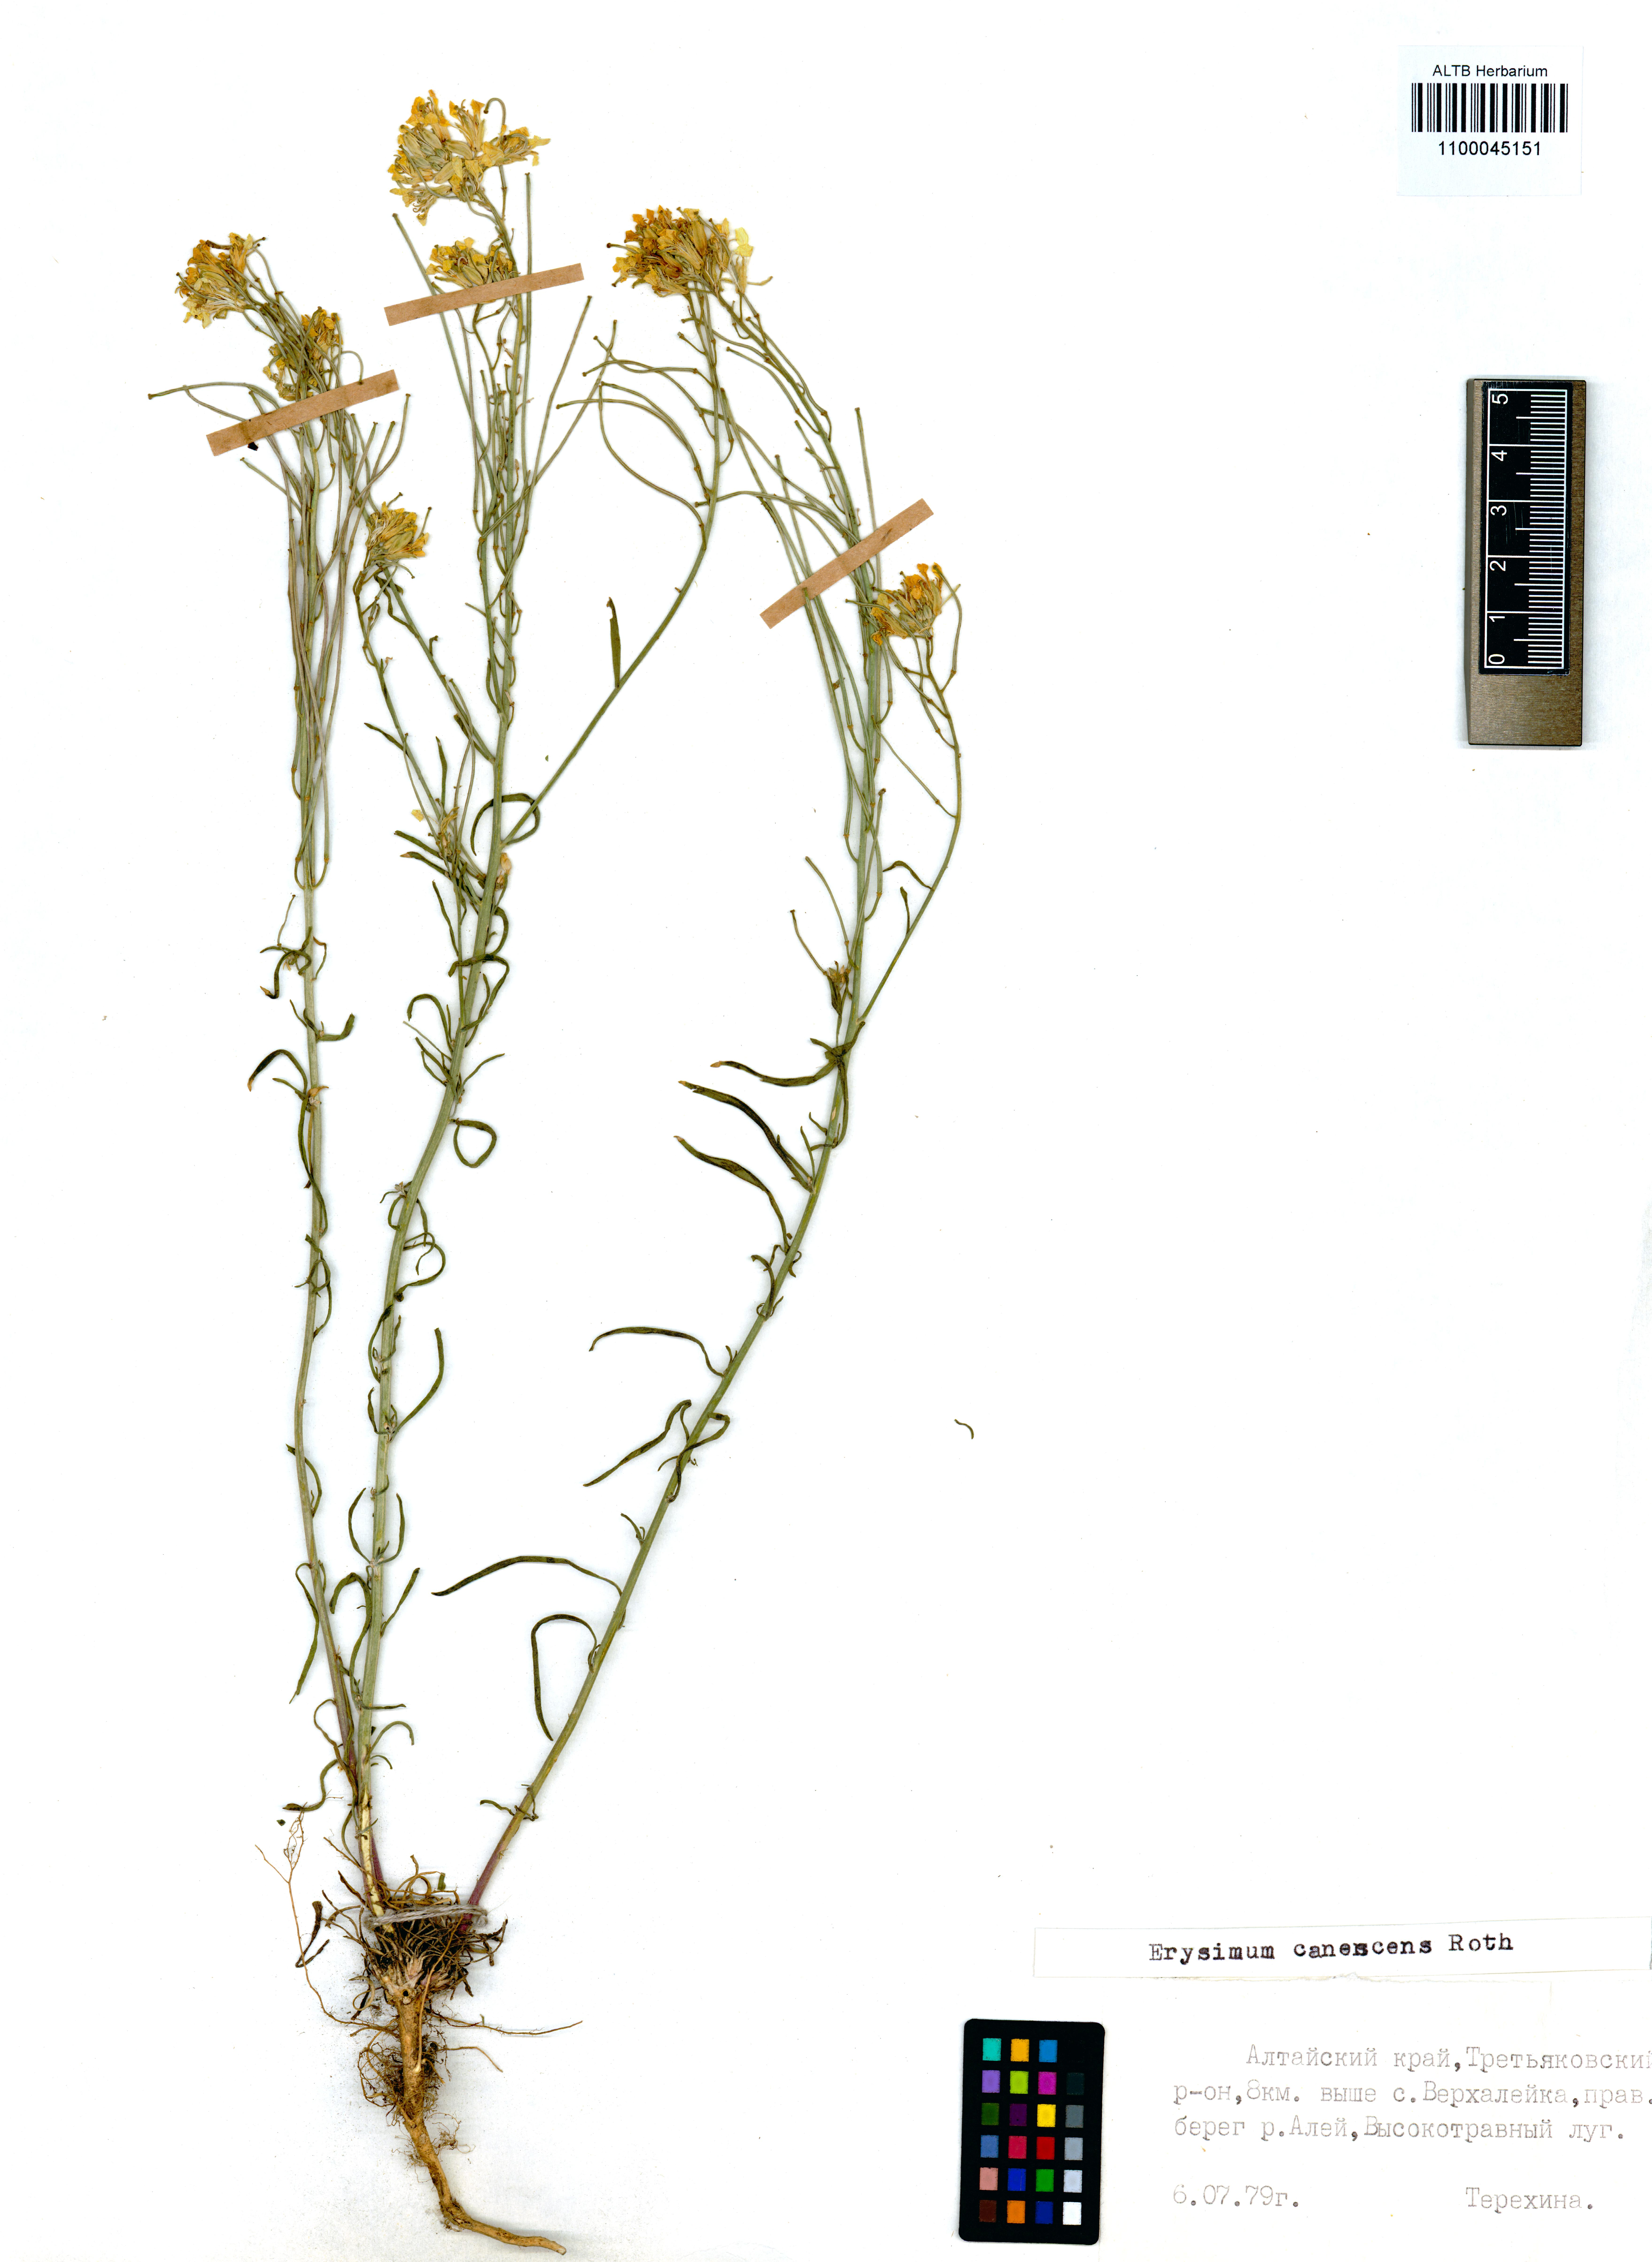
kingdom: Plantae
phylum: Tracheophyta
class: Magnoliopsida
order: Brassicales
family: Brassicaceae
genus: Erysimum
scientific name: Erysimum canescens
